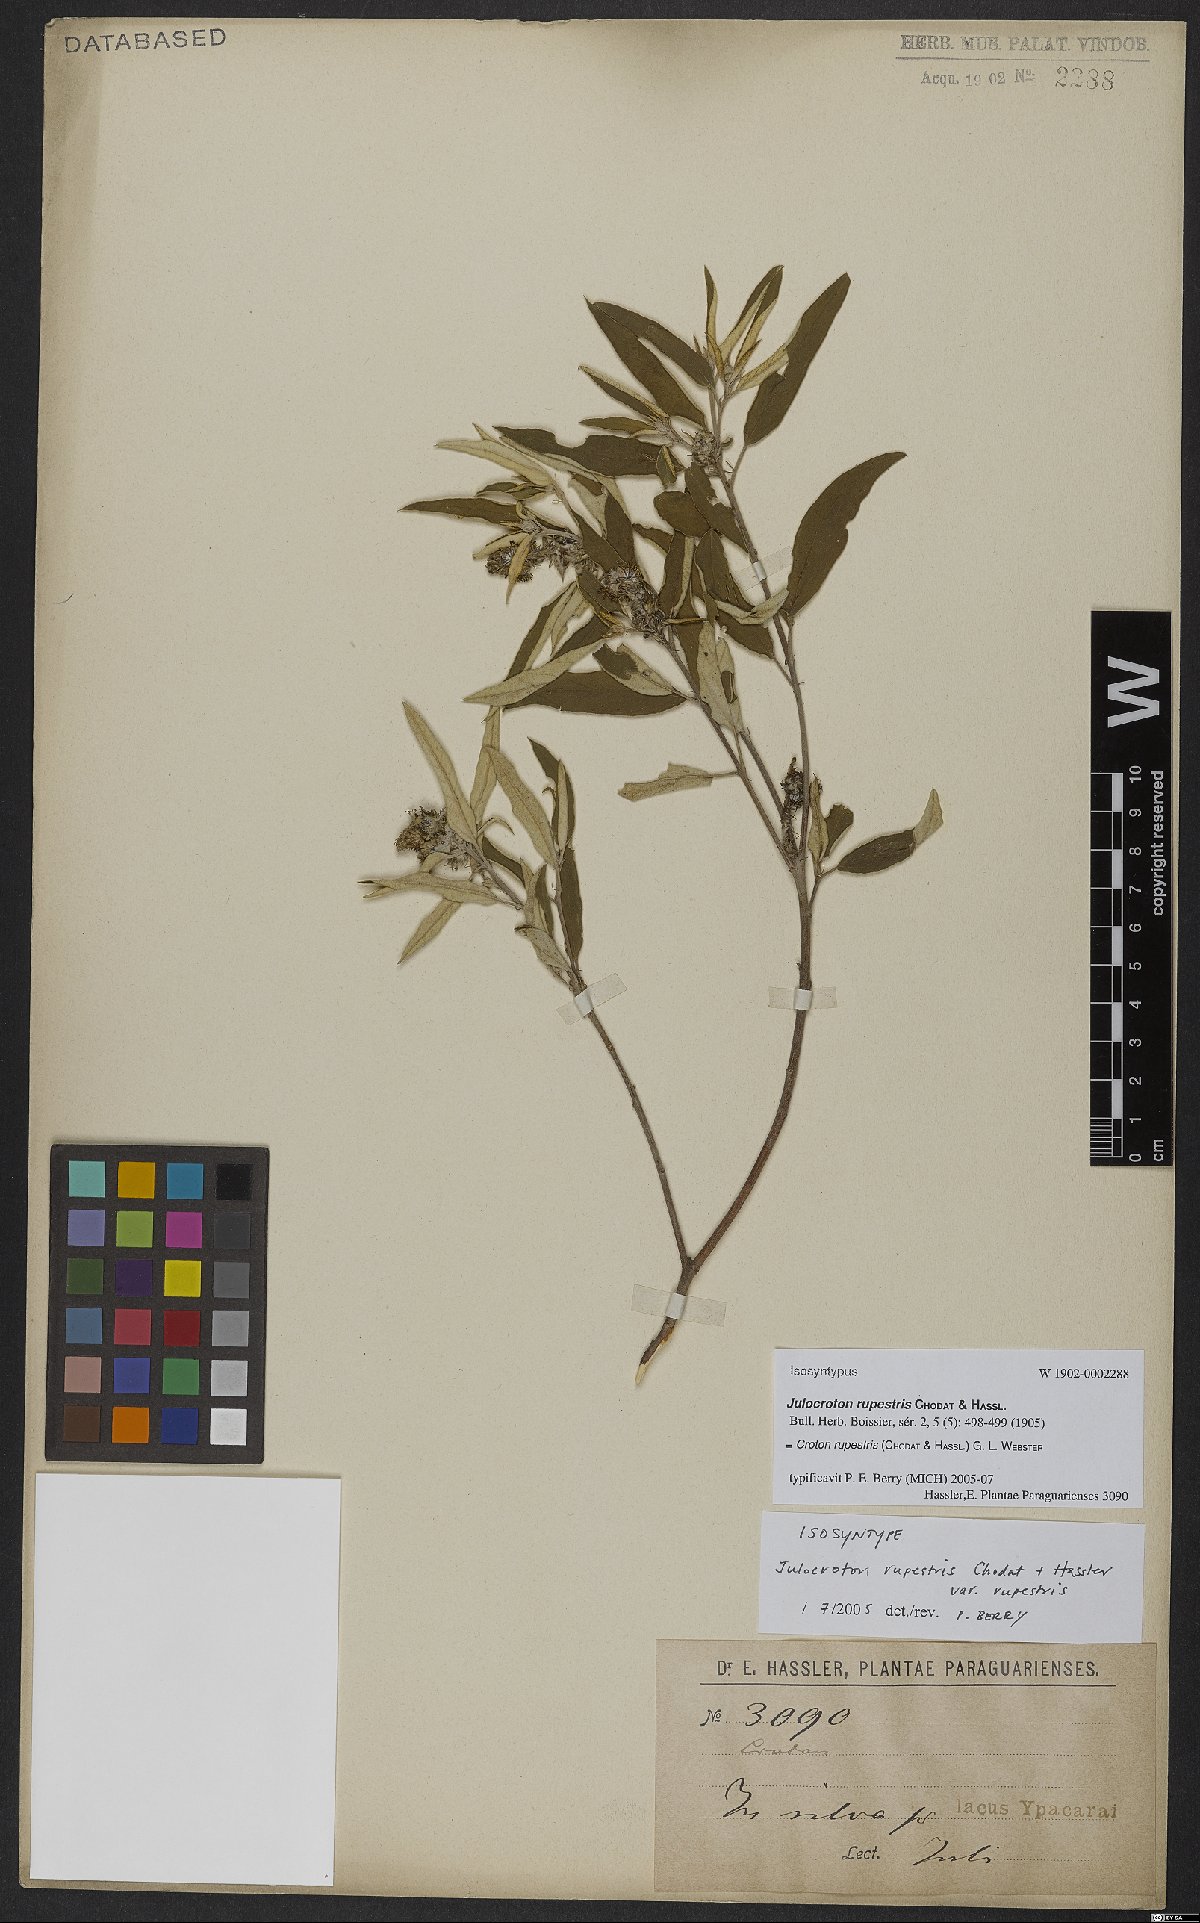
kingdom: Plantae
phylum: Tracheophyta
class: Magnoliopsida
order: Malpighiales
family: Euphorbiaceae
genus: Croton
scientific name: Croton rupestris
